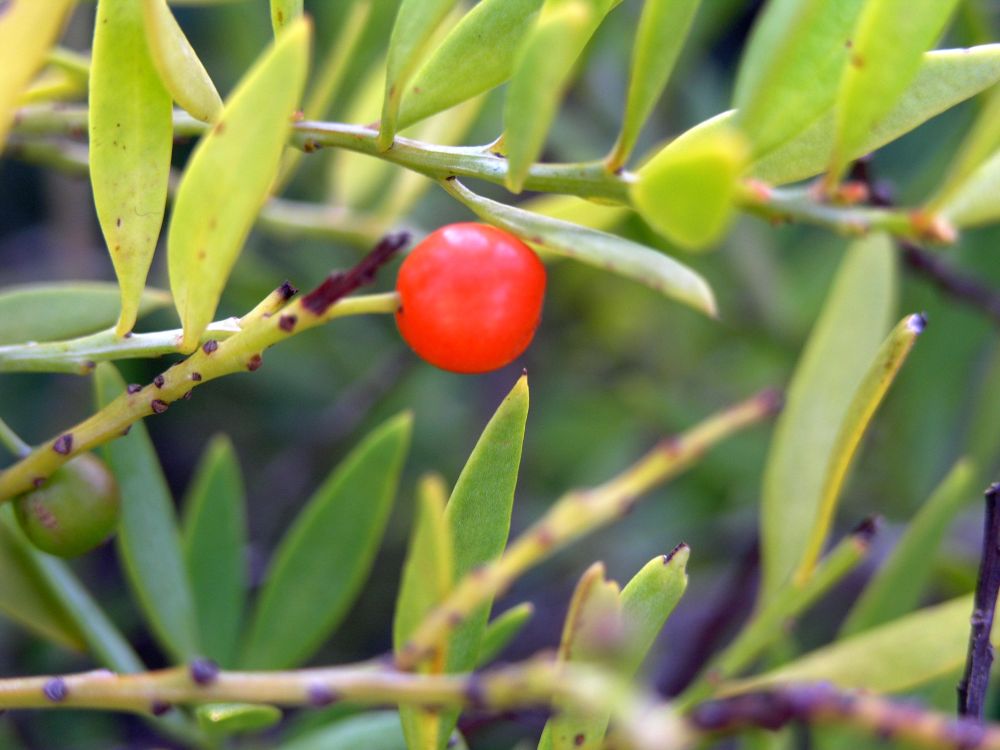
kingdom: Plantae
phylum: Tracheophyta
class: Magnoliopsida
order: Santalales
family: Santalaceae
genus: Osyris
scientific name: Osyris quadripartita
